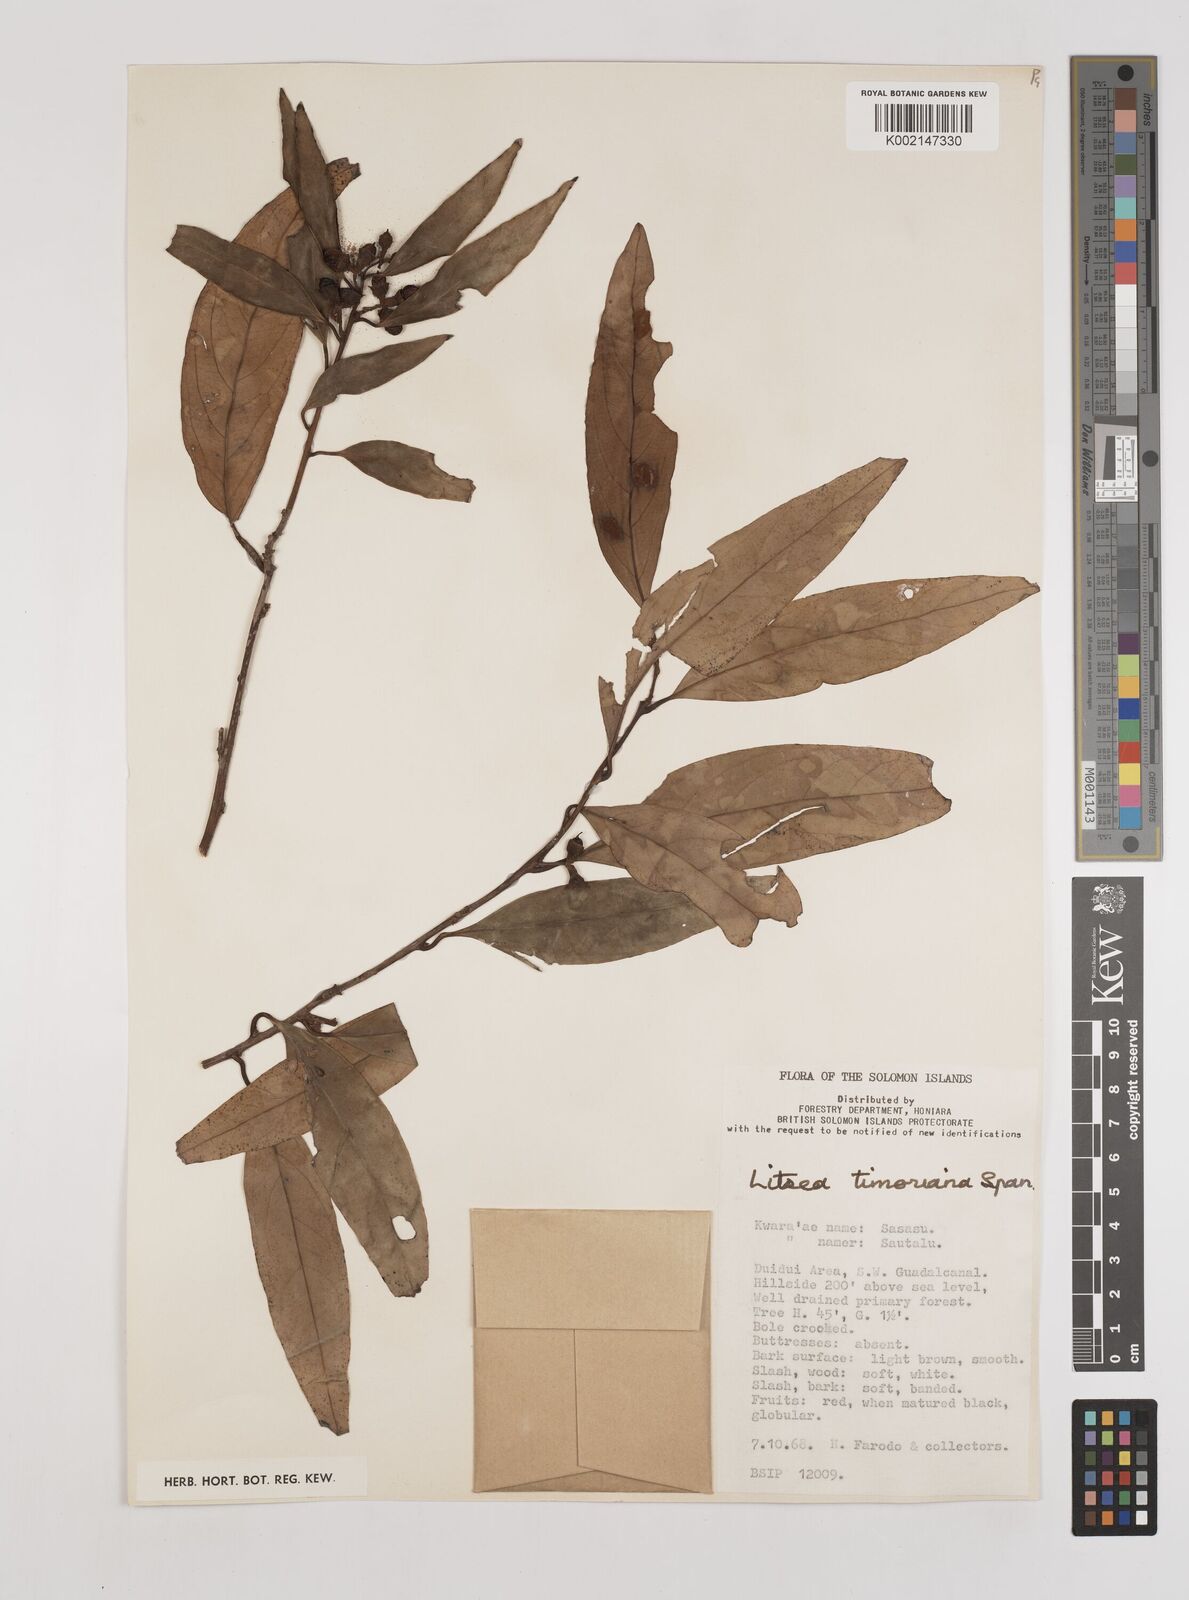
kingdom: Plantae
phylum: Tracheophyta
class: Magnoliopsida
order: Laurales
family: Lauraceae
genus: Litsea
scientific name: Litsea timoriana
